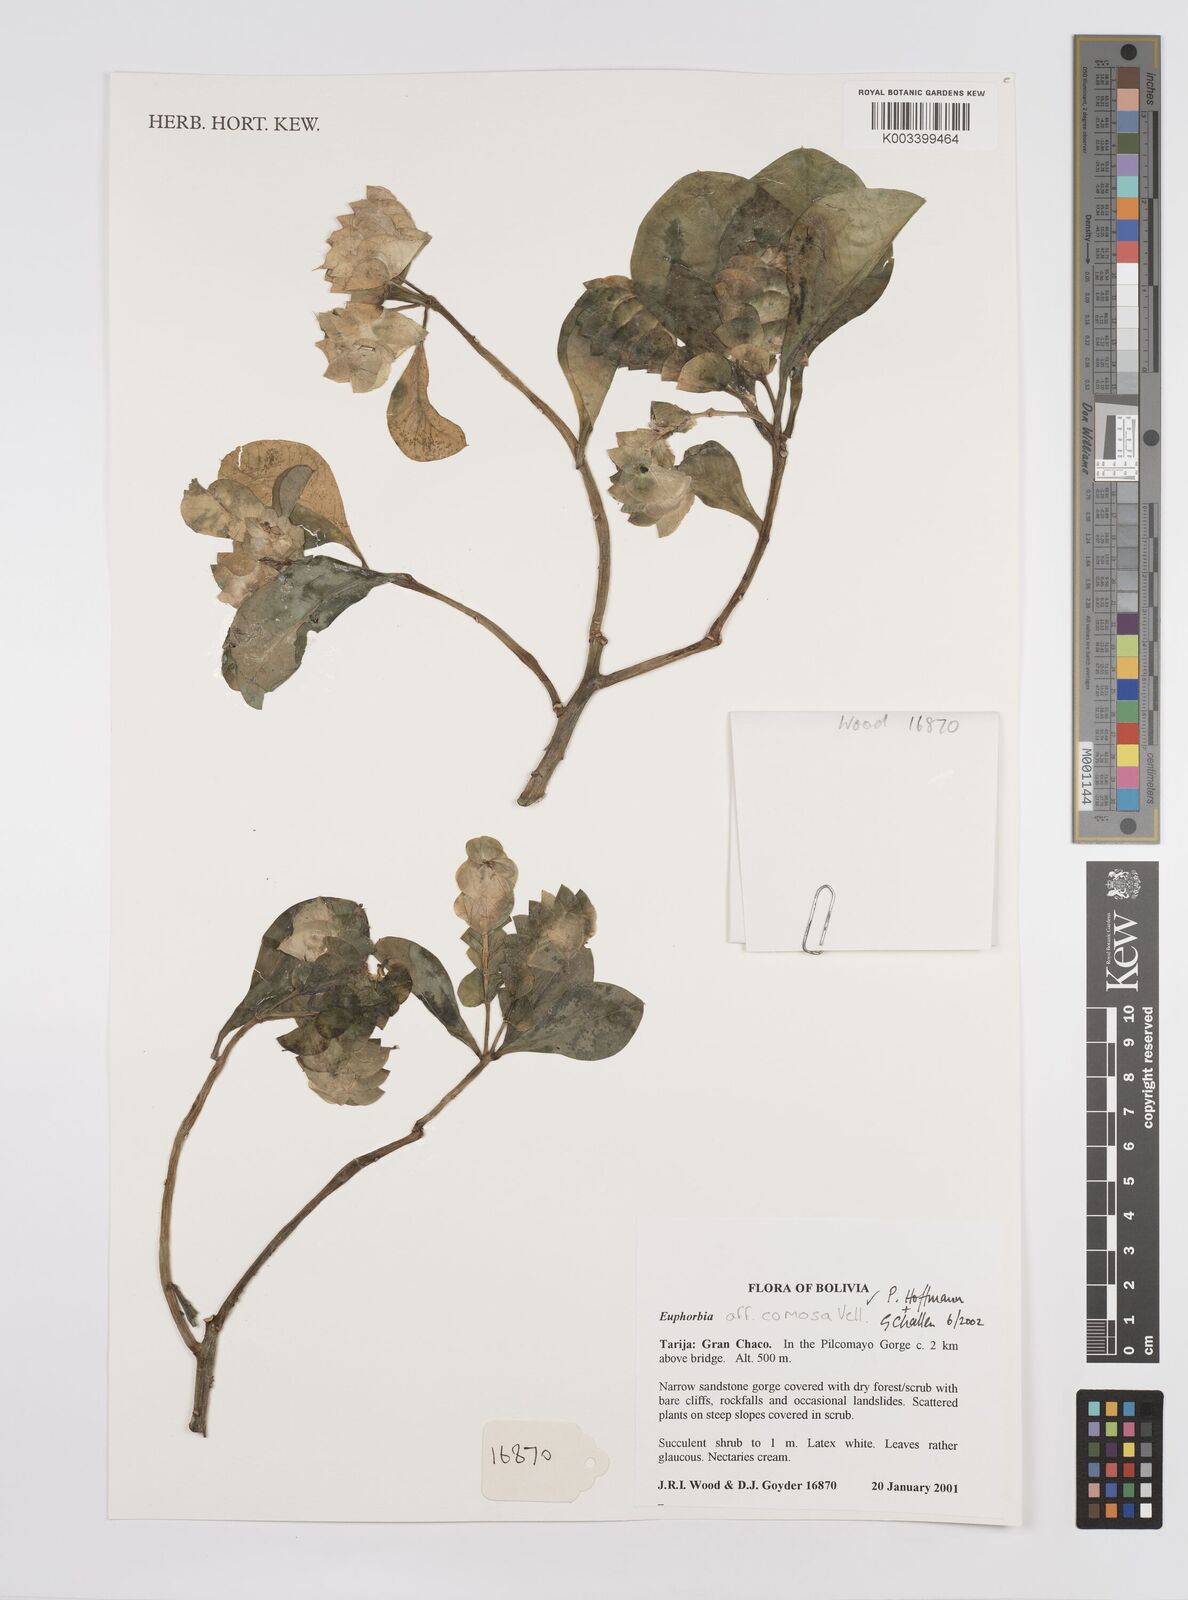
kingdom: Plantae
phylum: Tracheophyta
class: Magnoliopsida
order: Malpighiales
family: Euphorbiaceae
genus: Euphorbia
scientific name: Euphorbia
